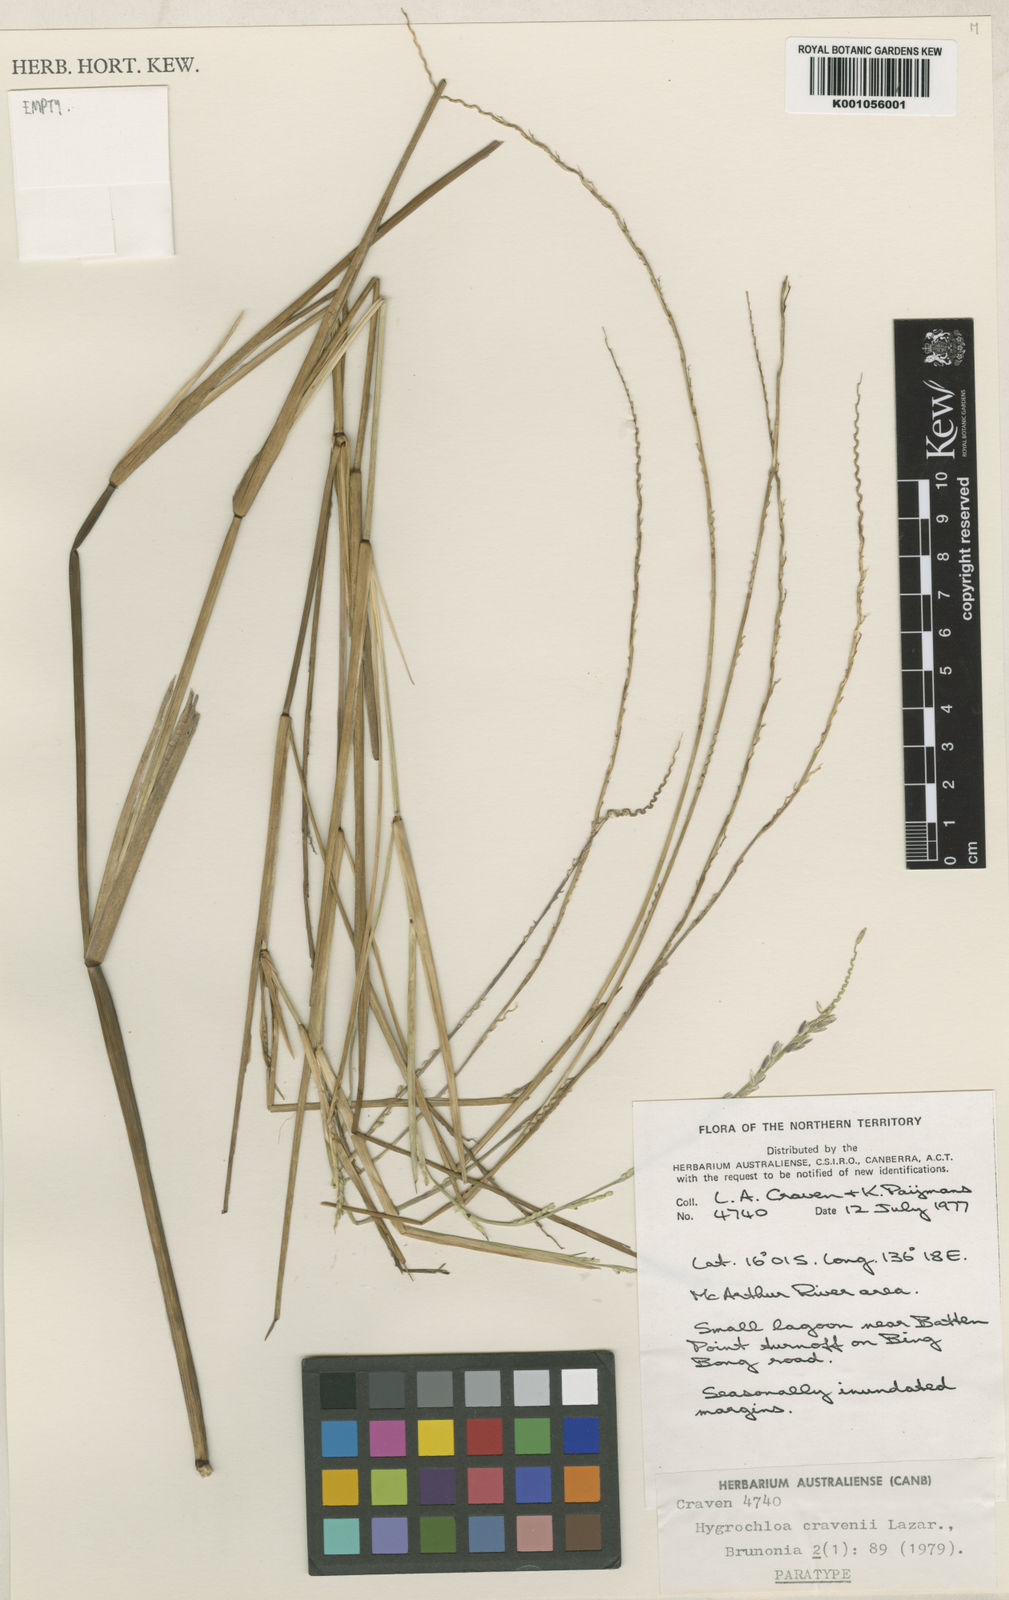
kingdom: Plantae
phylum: Tracheophyta
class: Liliopsida
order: Poales
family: Poaceae
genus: Hygrochloa
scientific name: Hygrochloa cravenii
